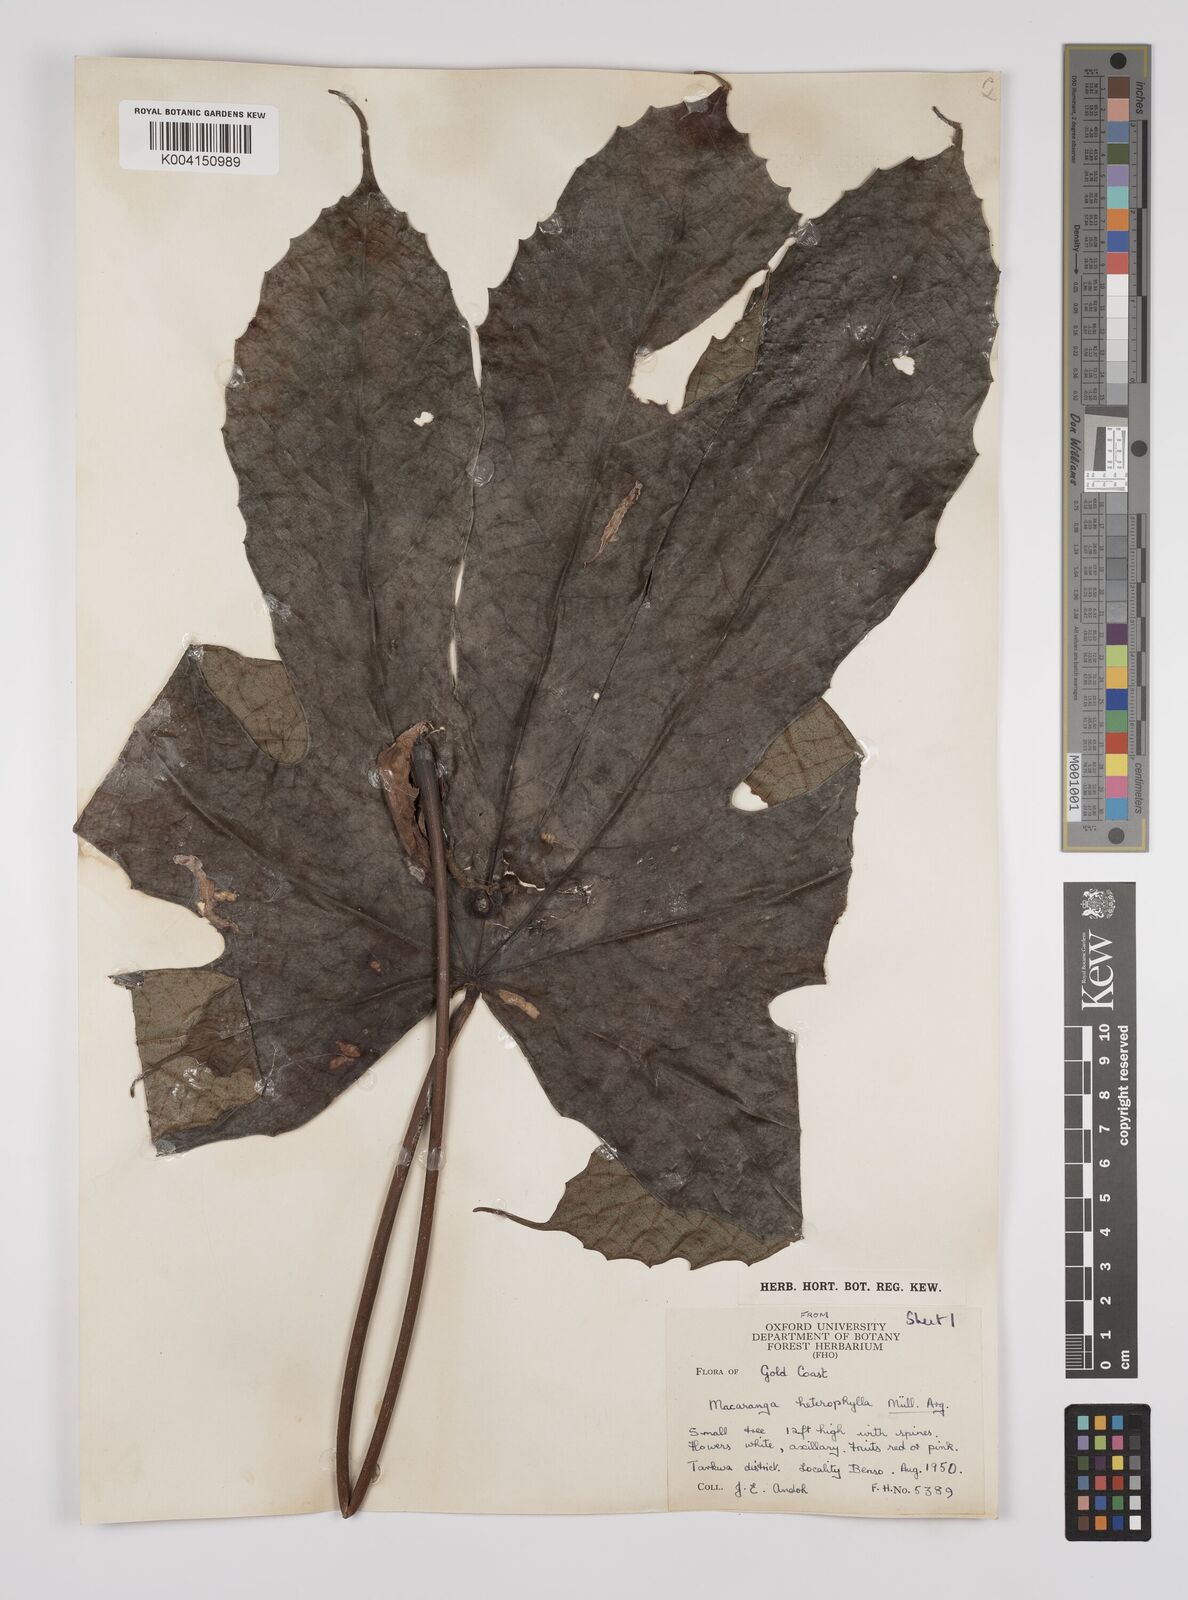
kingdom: Plantae
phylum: Tracheophyta
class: Magnoliopsida
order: Malpighiales
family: Euphorbiaceae
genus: Macaranga
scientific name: Macaranga heterophylla
